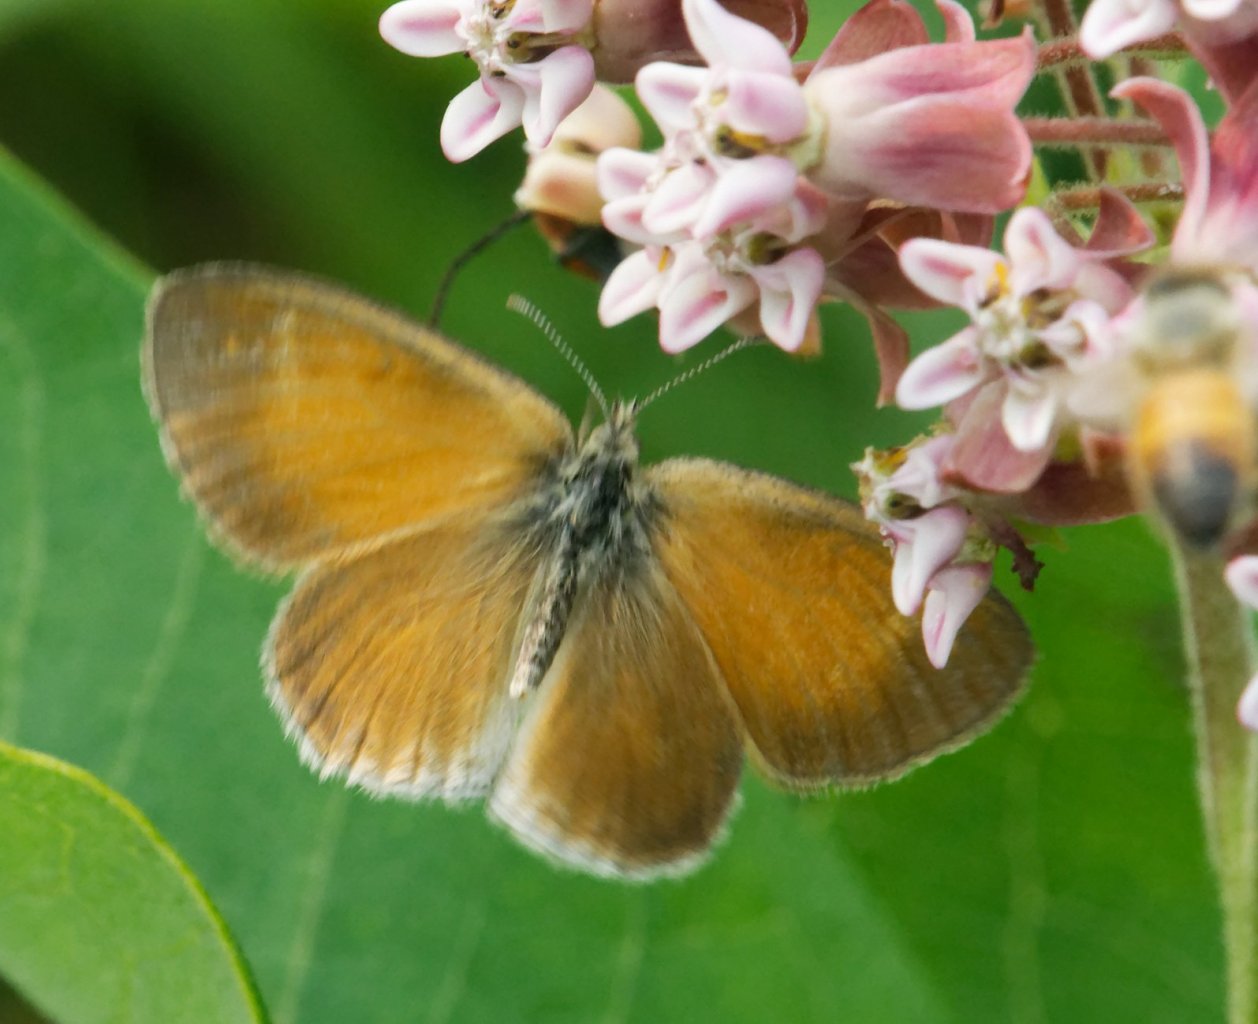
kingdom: Animalia
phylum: Arthropoda
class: Insecta
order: Lepidoptera
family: Nymphalidae
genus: Coenonympha
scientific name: Coenonympha tullia
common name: Large Heath
